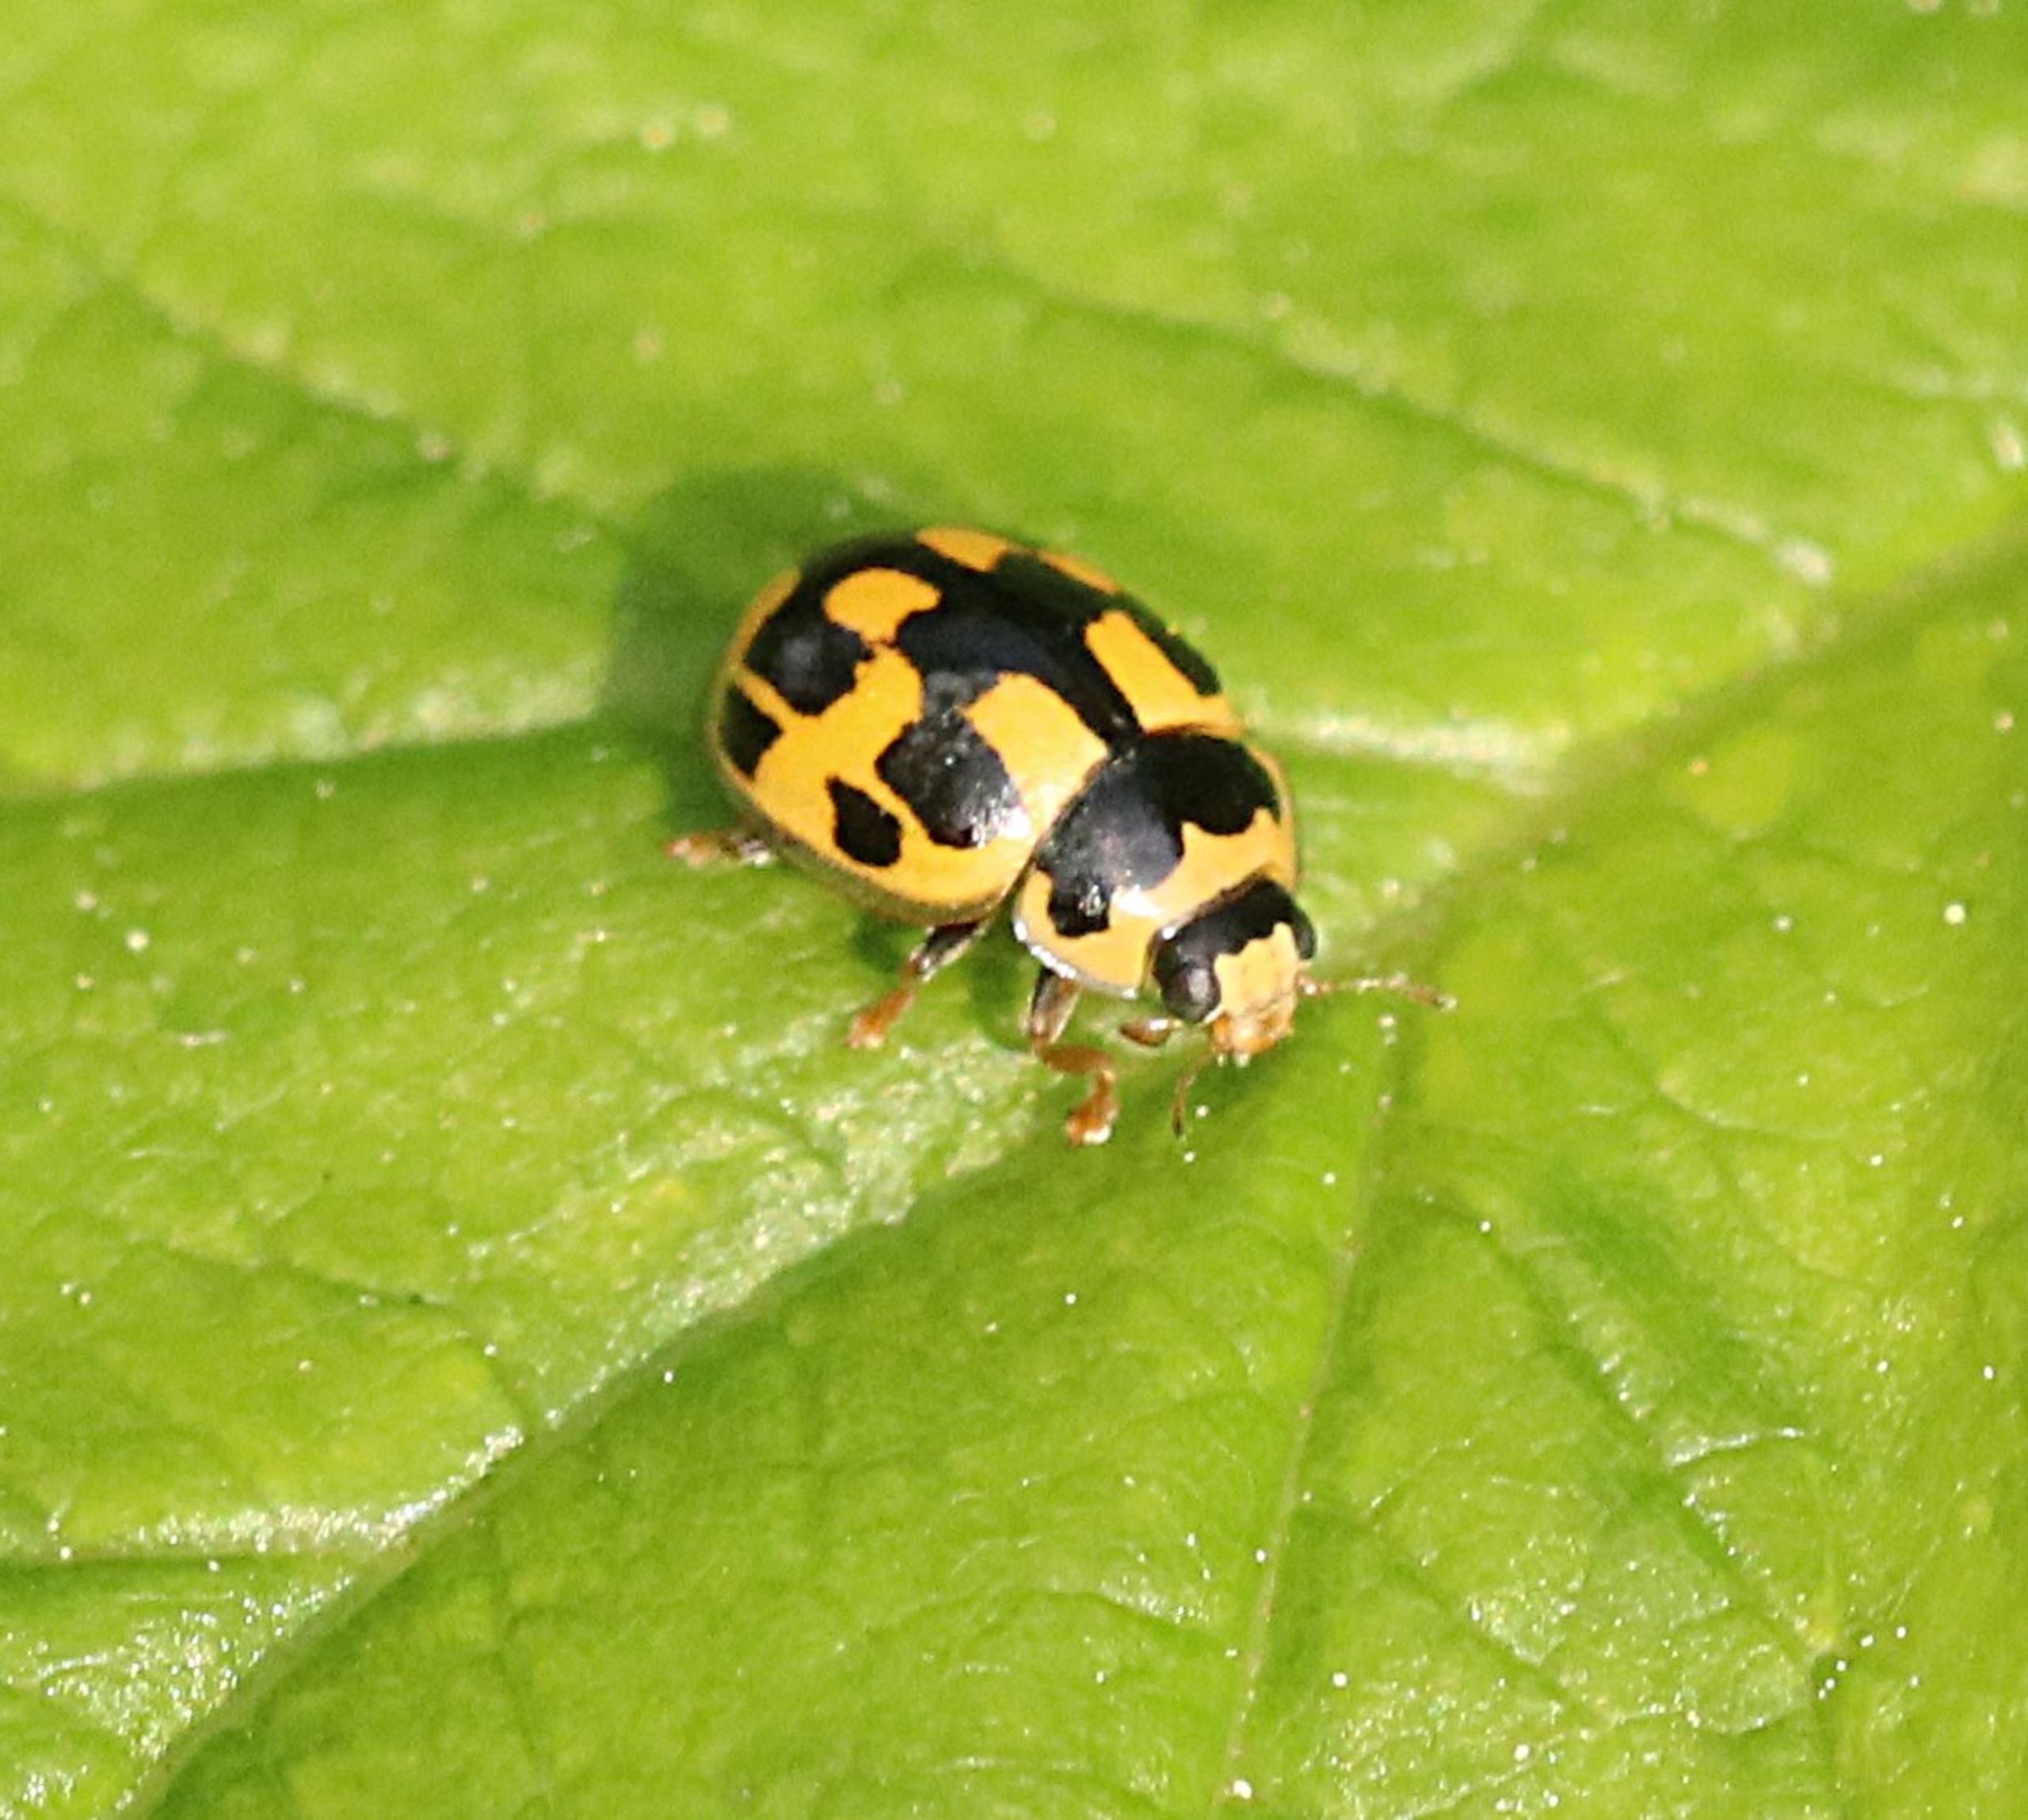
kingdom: Animalia
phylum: Arthropoda
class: Insecta
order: Coleoptera
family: Coccinellidae
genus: Propylaea
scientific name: Propylaea quatuordecimpunctata
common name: Skakbræt
